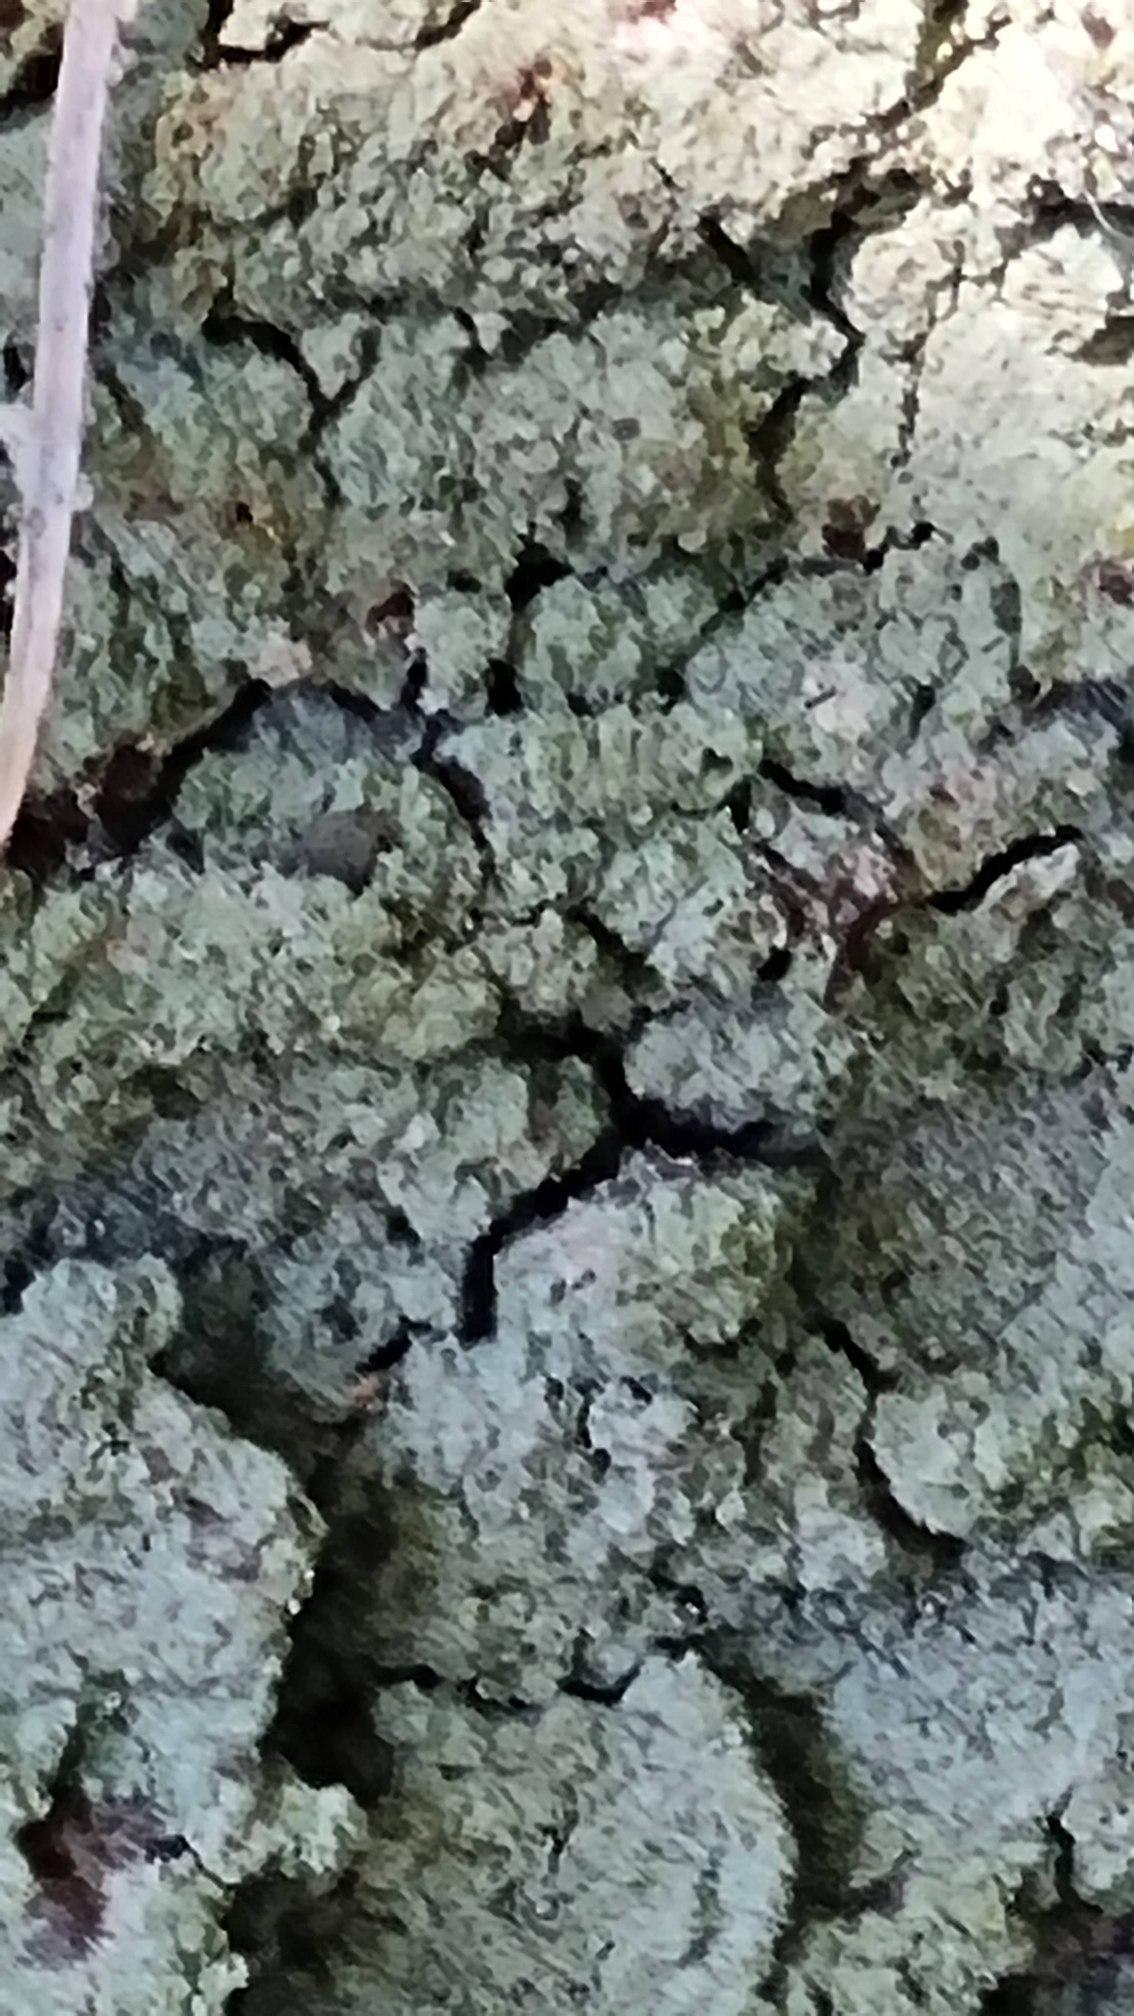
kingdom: Fungi
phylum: Ascomycota
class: Lecanoromycetes
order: Lecanorales
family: Stereocaulaceae
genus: Lepraria
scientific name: Lepraria
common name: Støvlav
